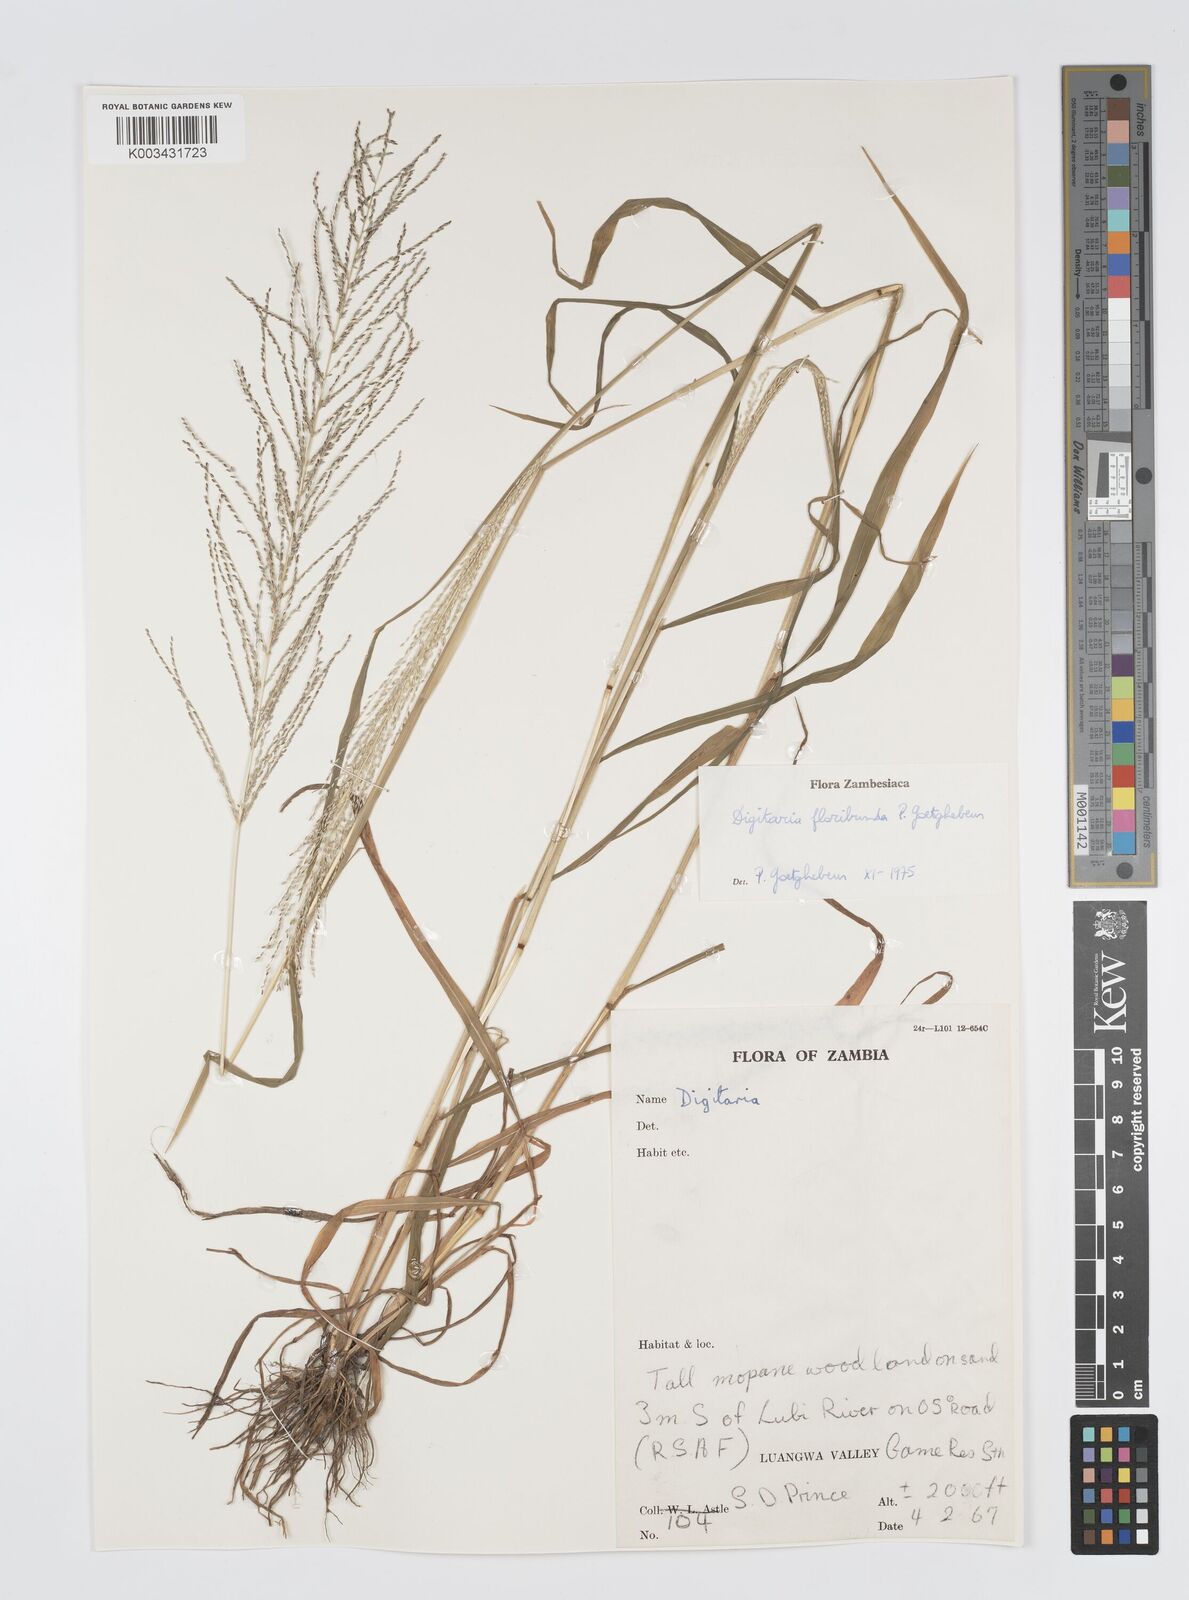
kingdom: Plantae
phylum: Tracheophyta
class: Liliopsida
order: Poales
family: Poaceae
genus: Digitaria
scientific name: Digitaria perrottetii
